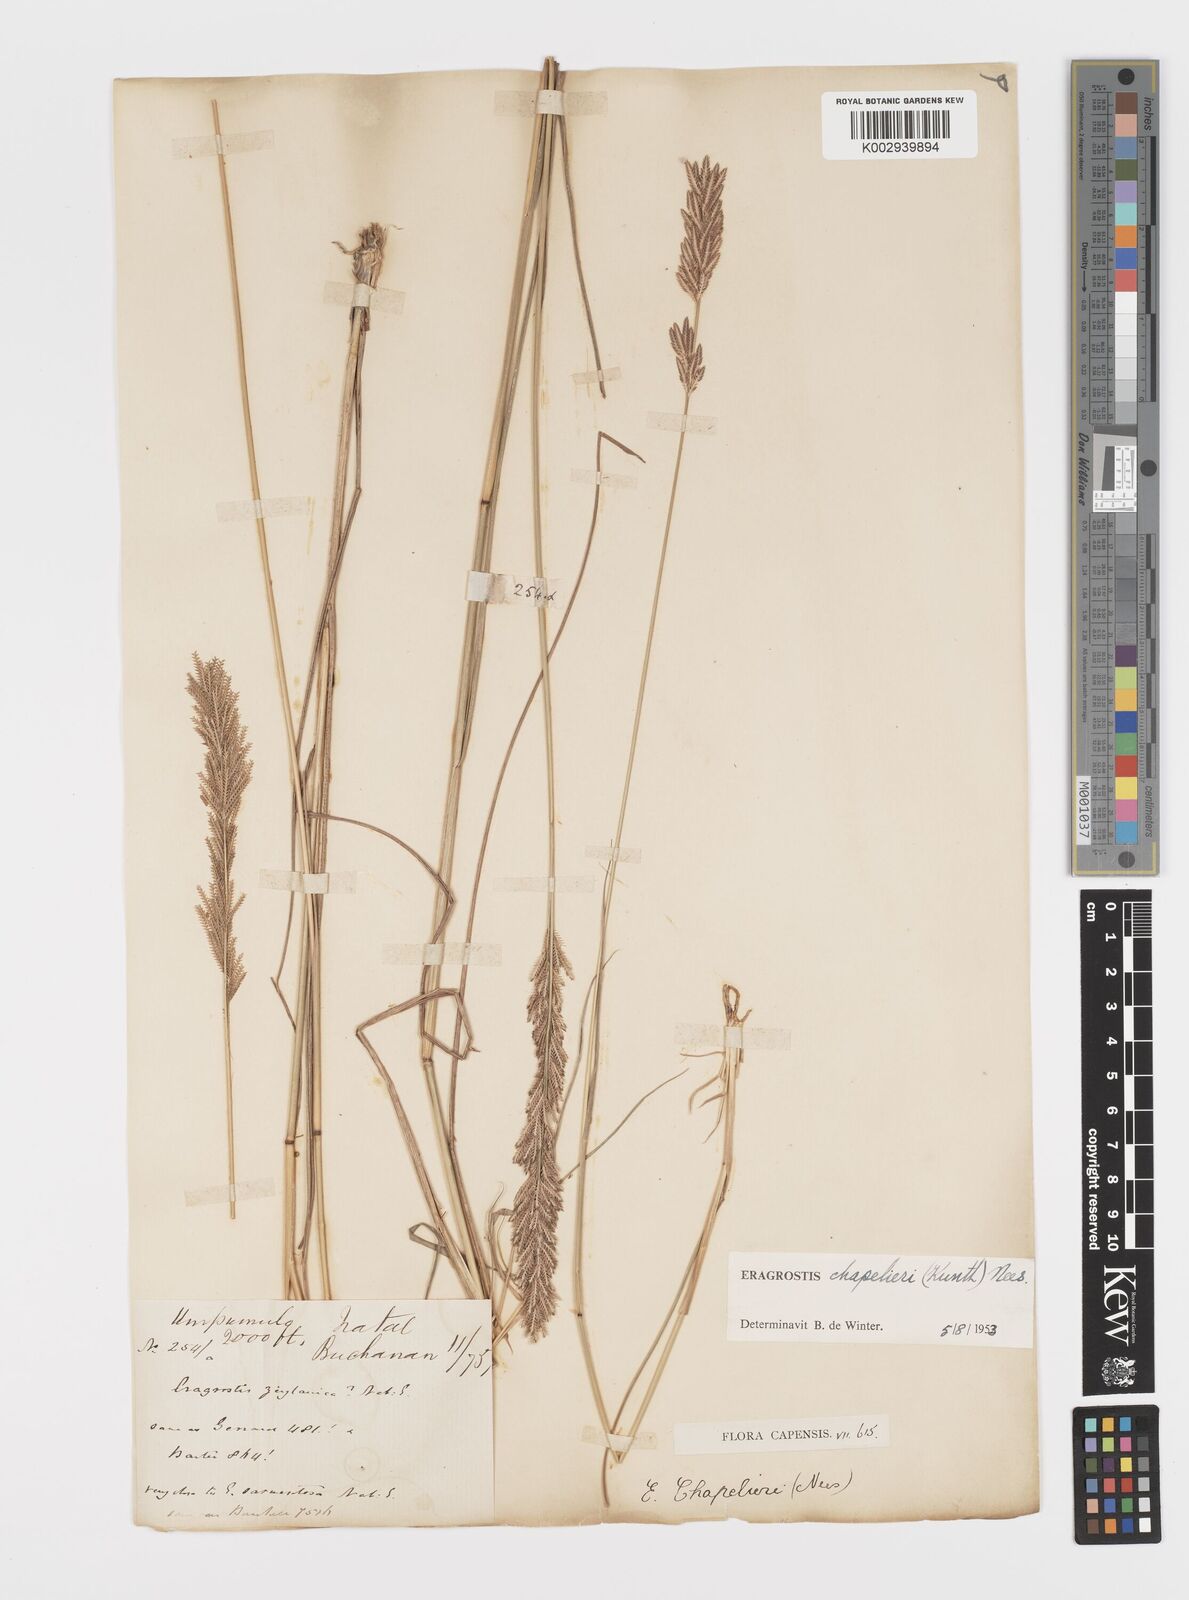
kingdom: Plantae
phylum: Tracheophyta
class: Liliopsida
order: Poales
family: Poaceae
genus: Eragrostis
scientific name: Eragrostis chapelieri
